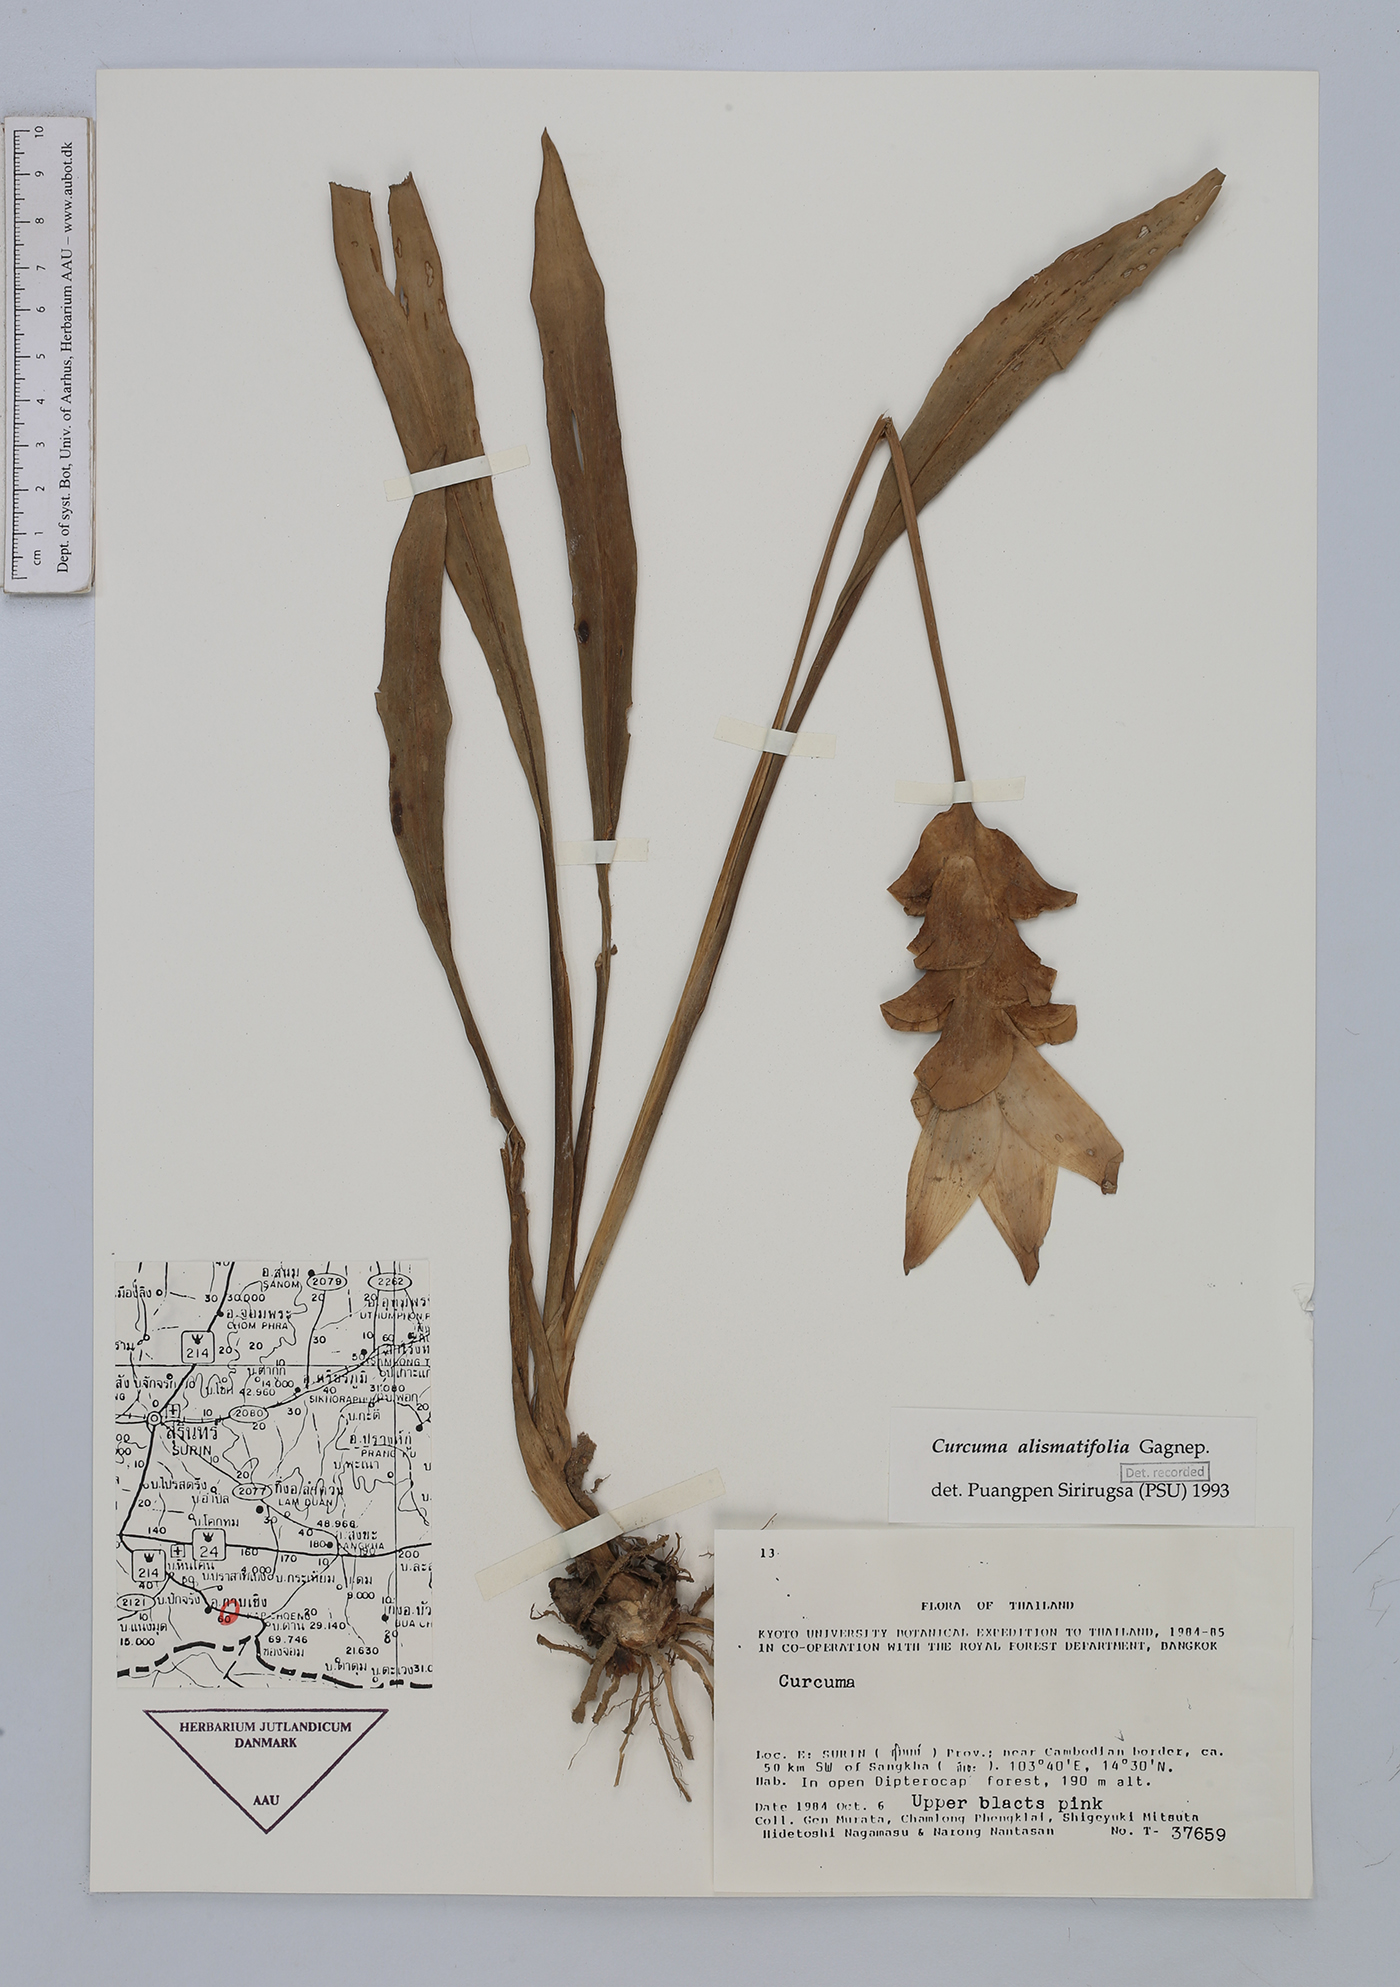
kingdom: Plantae
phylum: Tracheophyta
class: Liliopsida
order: Zingiberales
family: Zingiberaceae
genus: Curcuma
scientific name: Curcuma alismatifolia
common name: Siam tulip
